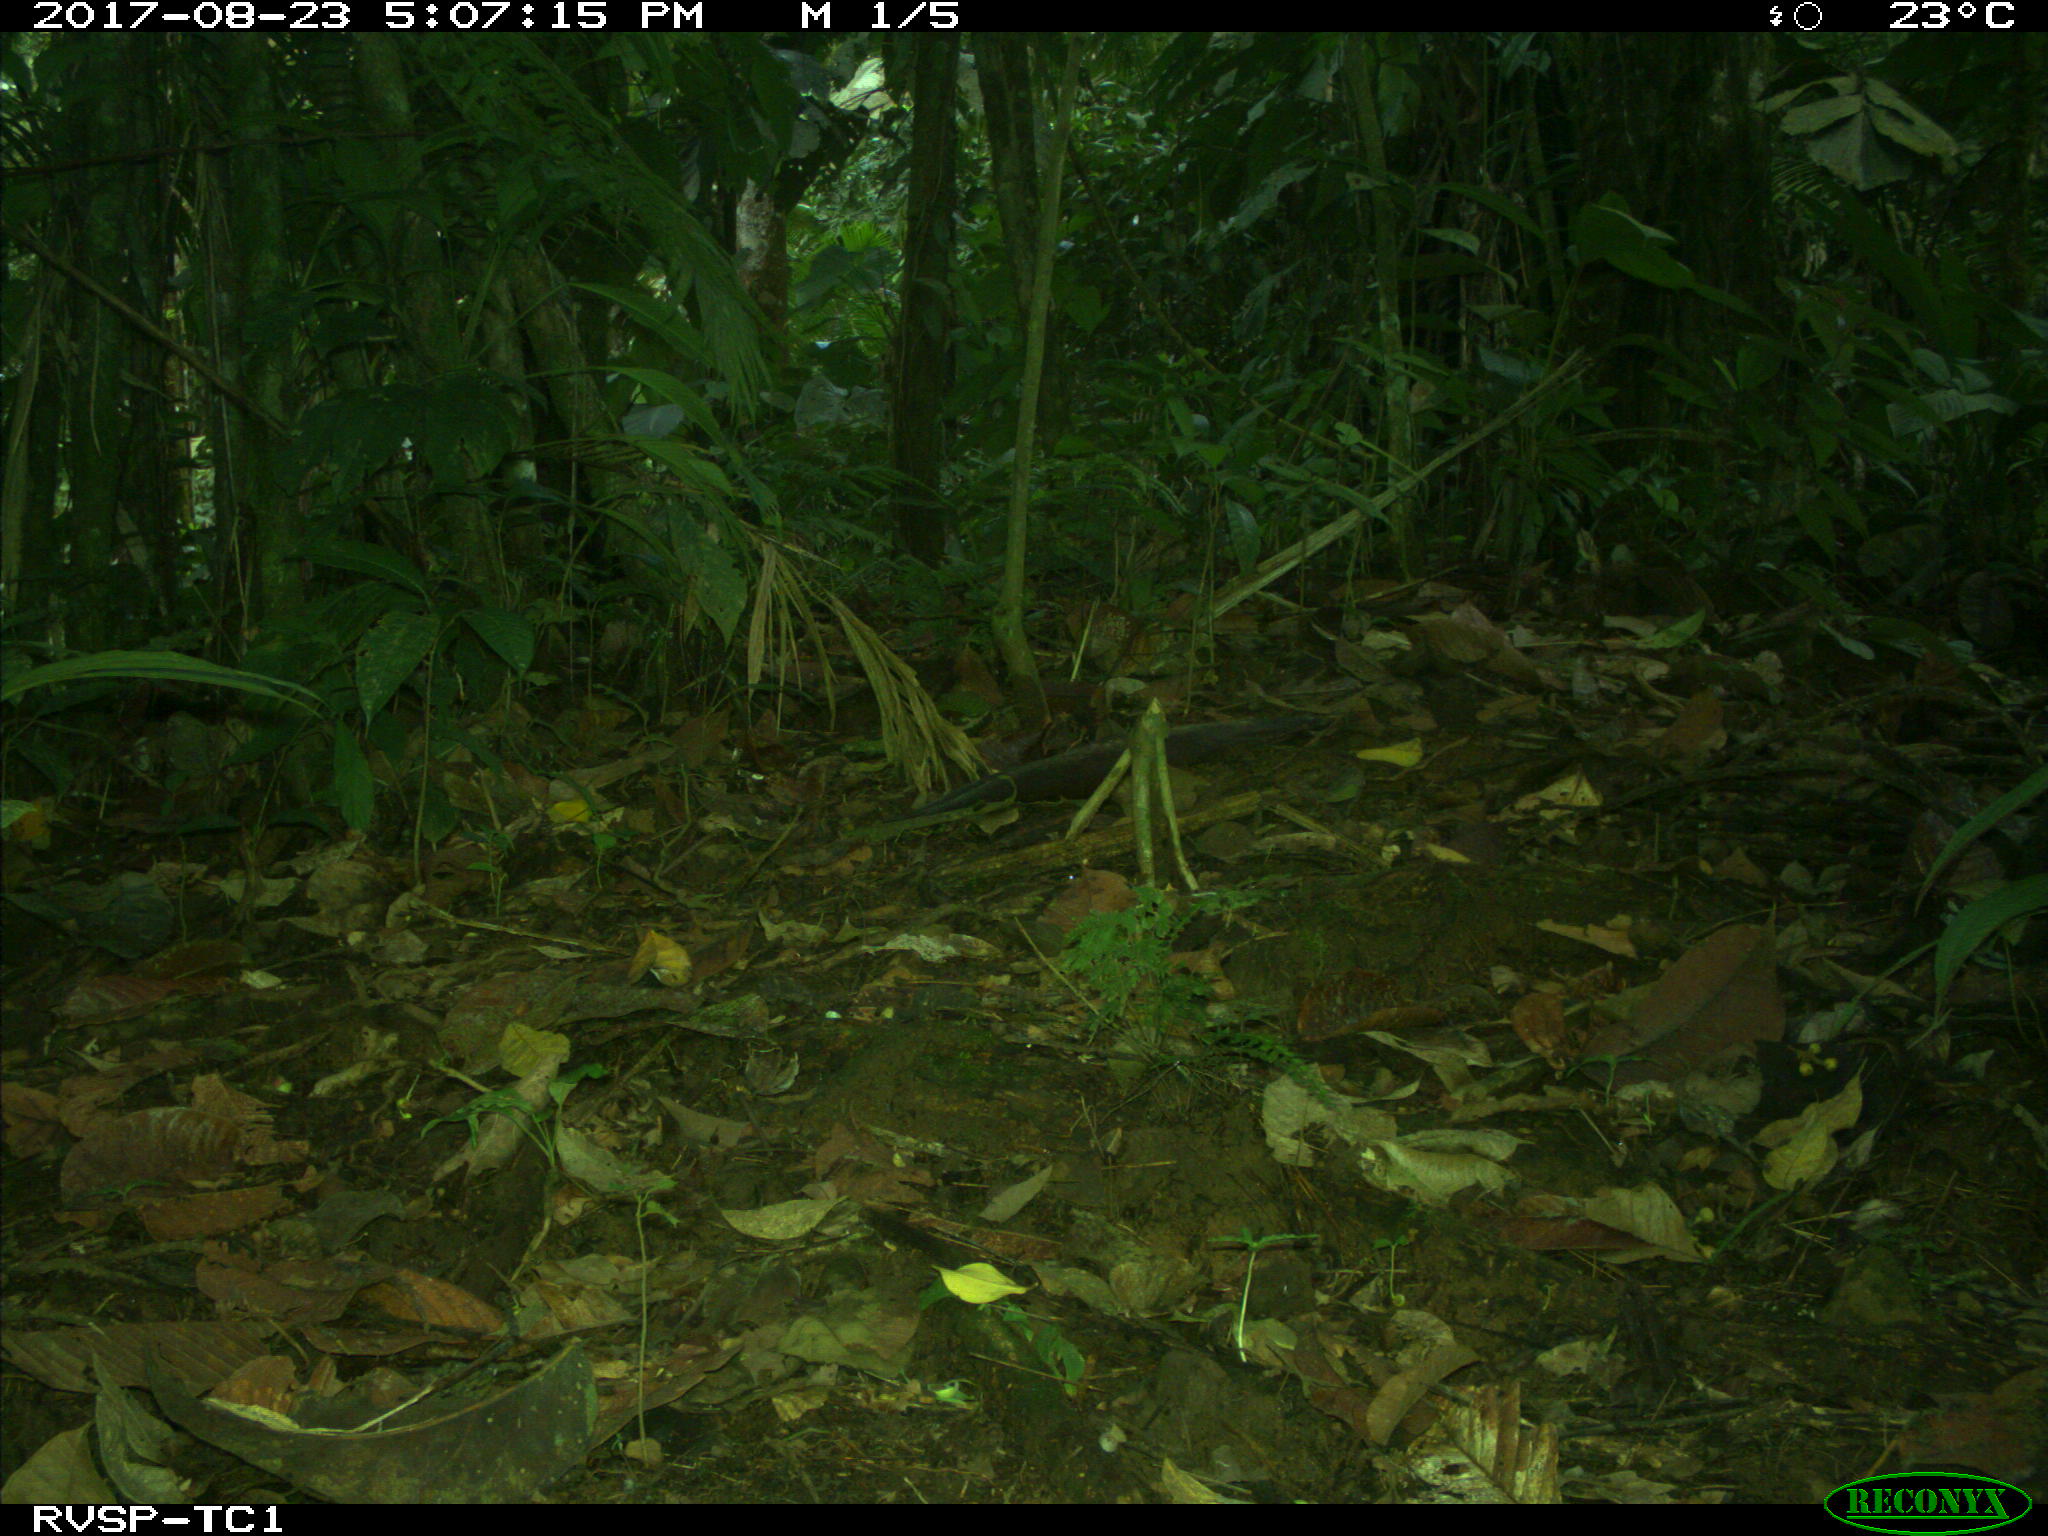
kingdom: Animalia
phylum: Chordata
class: Mammalia
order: Rodentia
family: Dasyproctidae
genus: Dasyprocta
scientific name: Dasyprocta punctata
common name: Central american agouti
